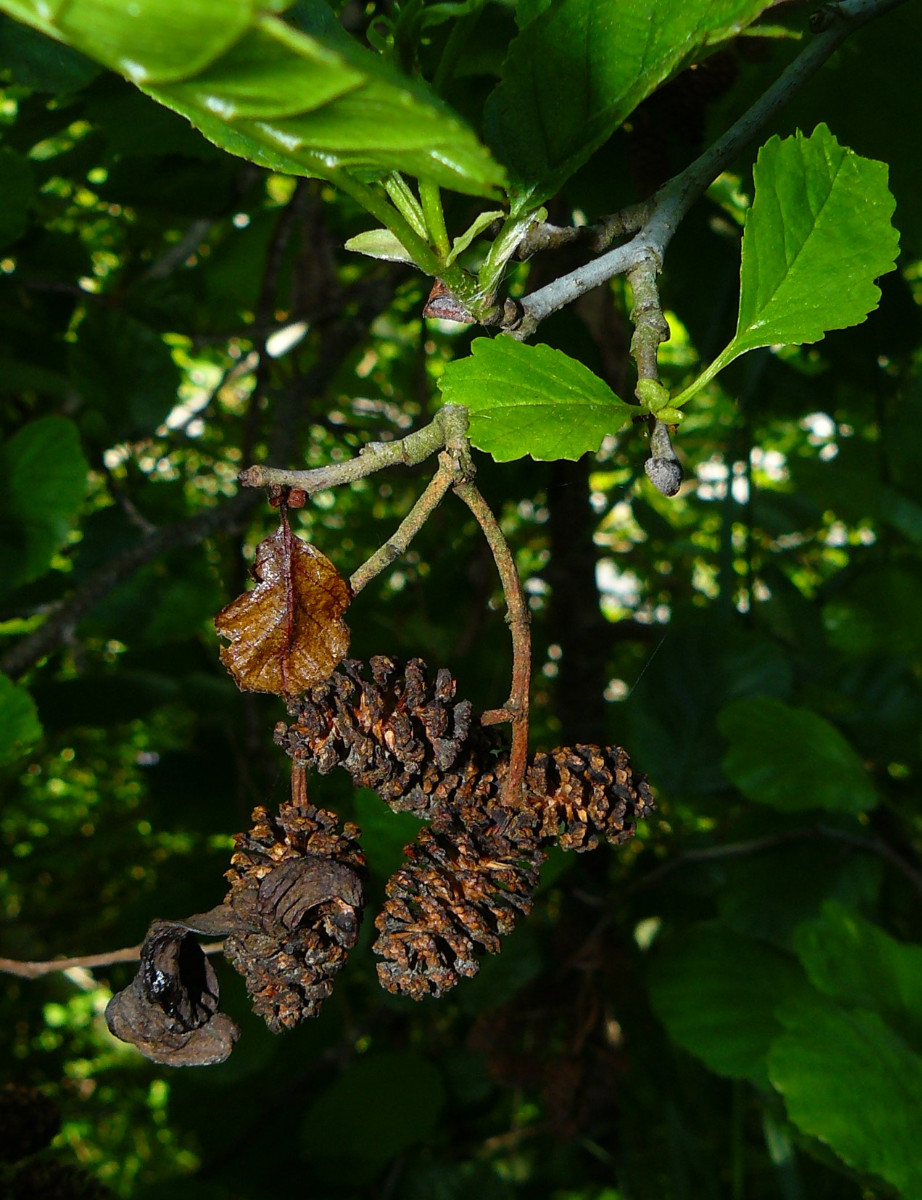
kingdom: Fungi
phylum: Ascomycota
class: Taphrinomycetes
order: Taphrinales
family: Taphrinaceae
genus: Taphrina
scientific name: Taphrina alni
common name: Alder tongue
